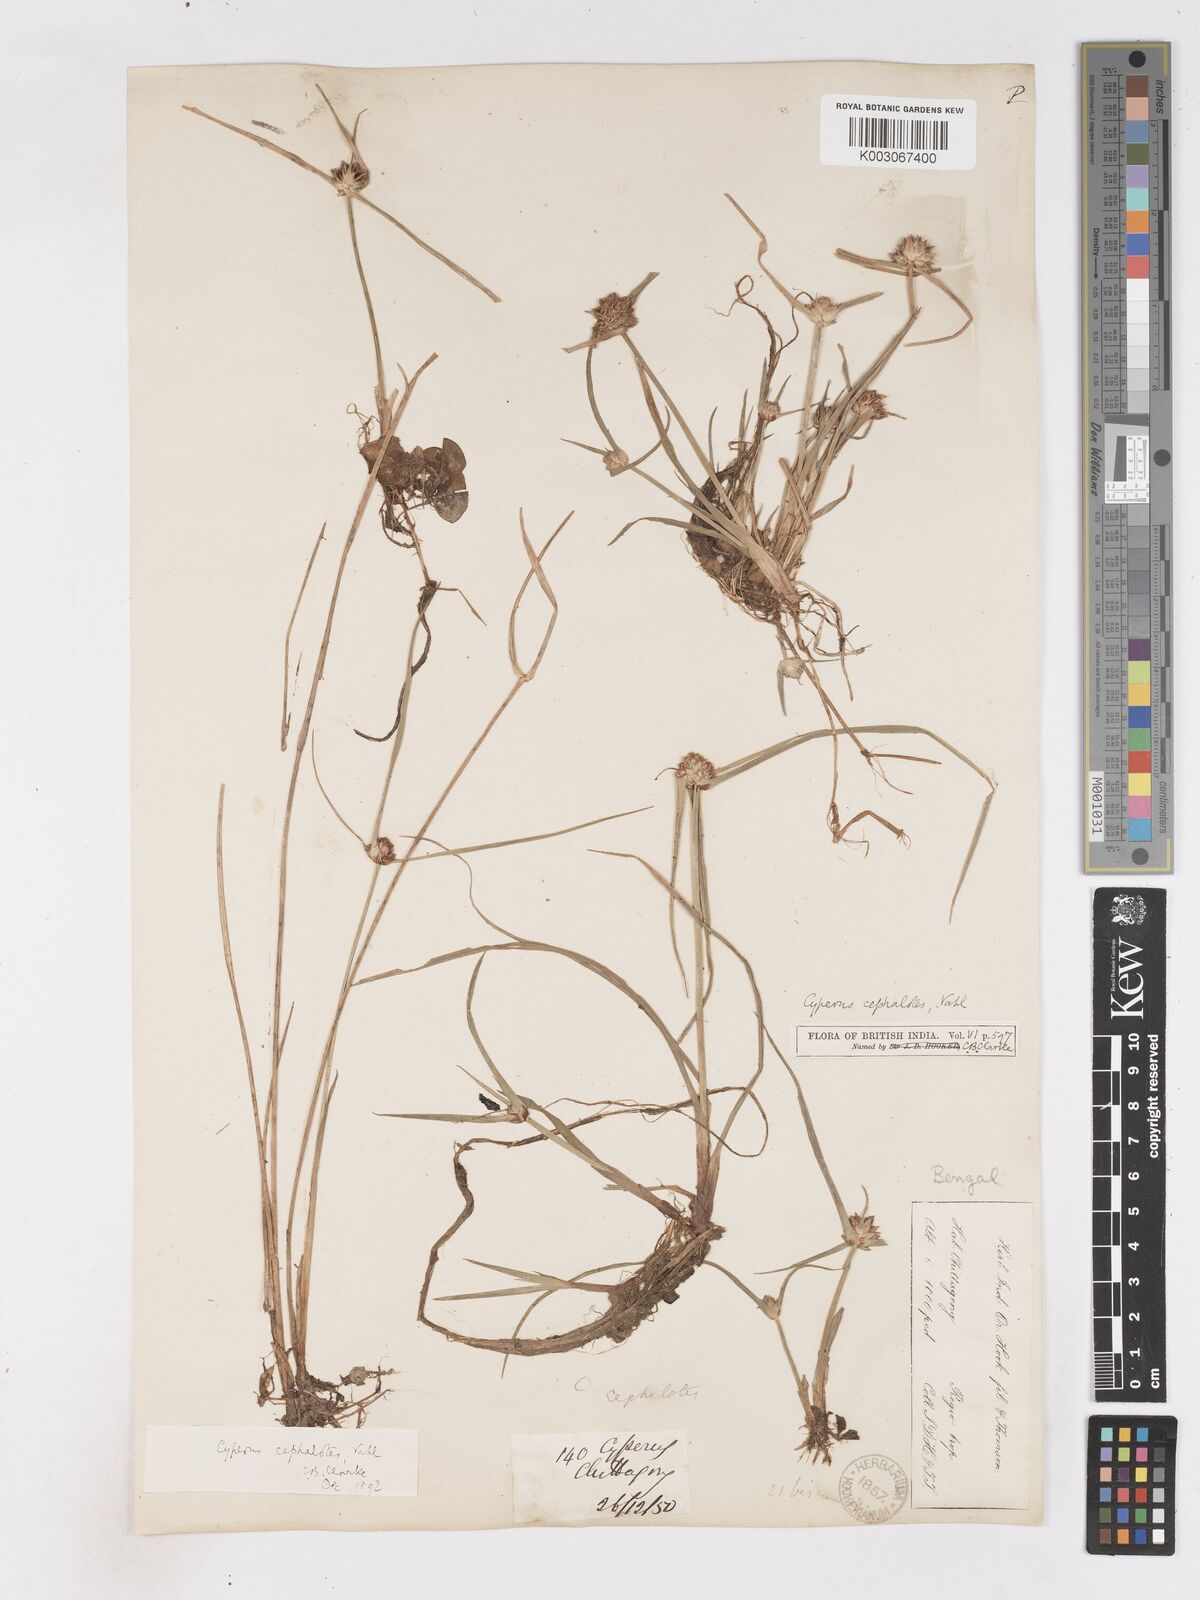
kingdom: Plantae
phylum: Tracheophyta
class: Liliopsida
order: Poales
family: Cyperaceae
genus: Cyperus
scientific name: Cyperus cephalotes
